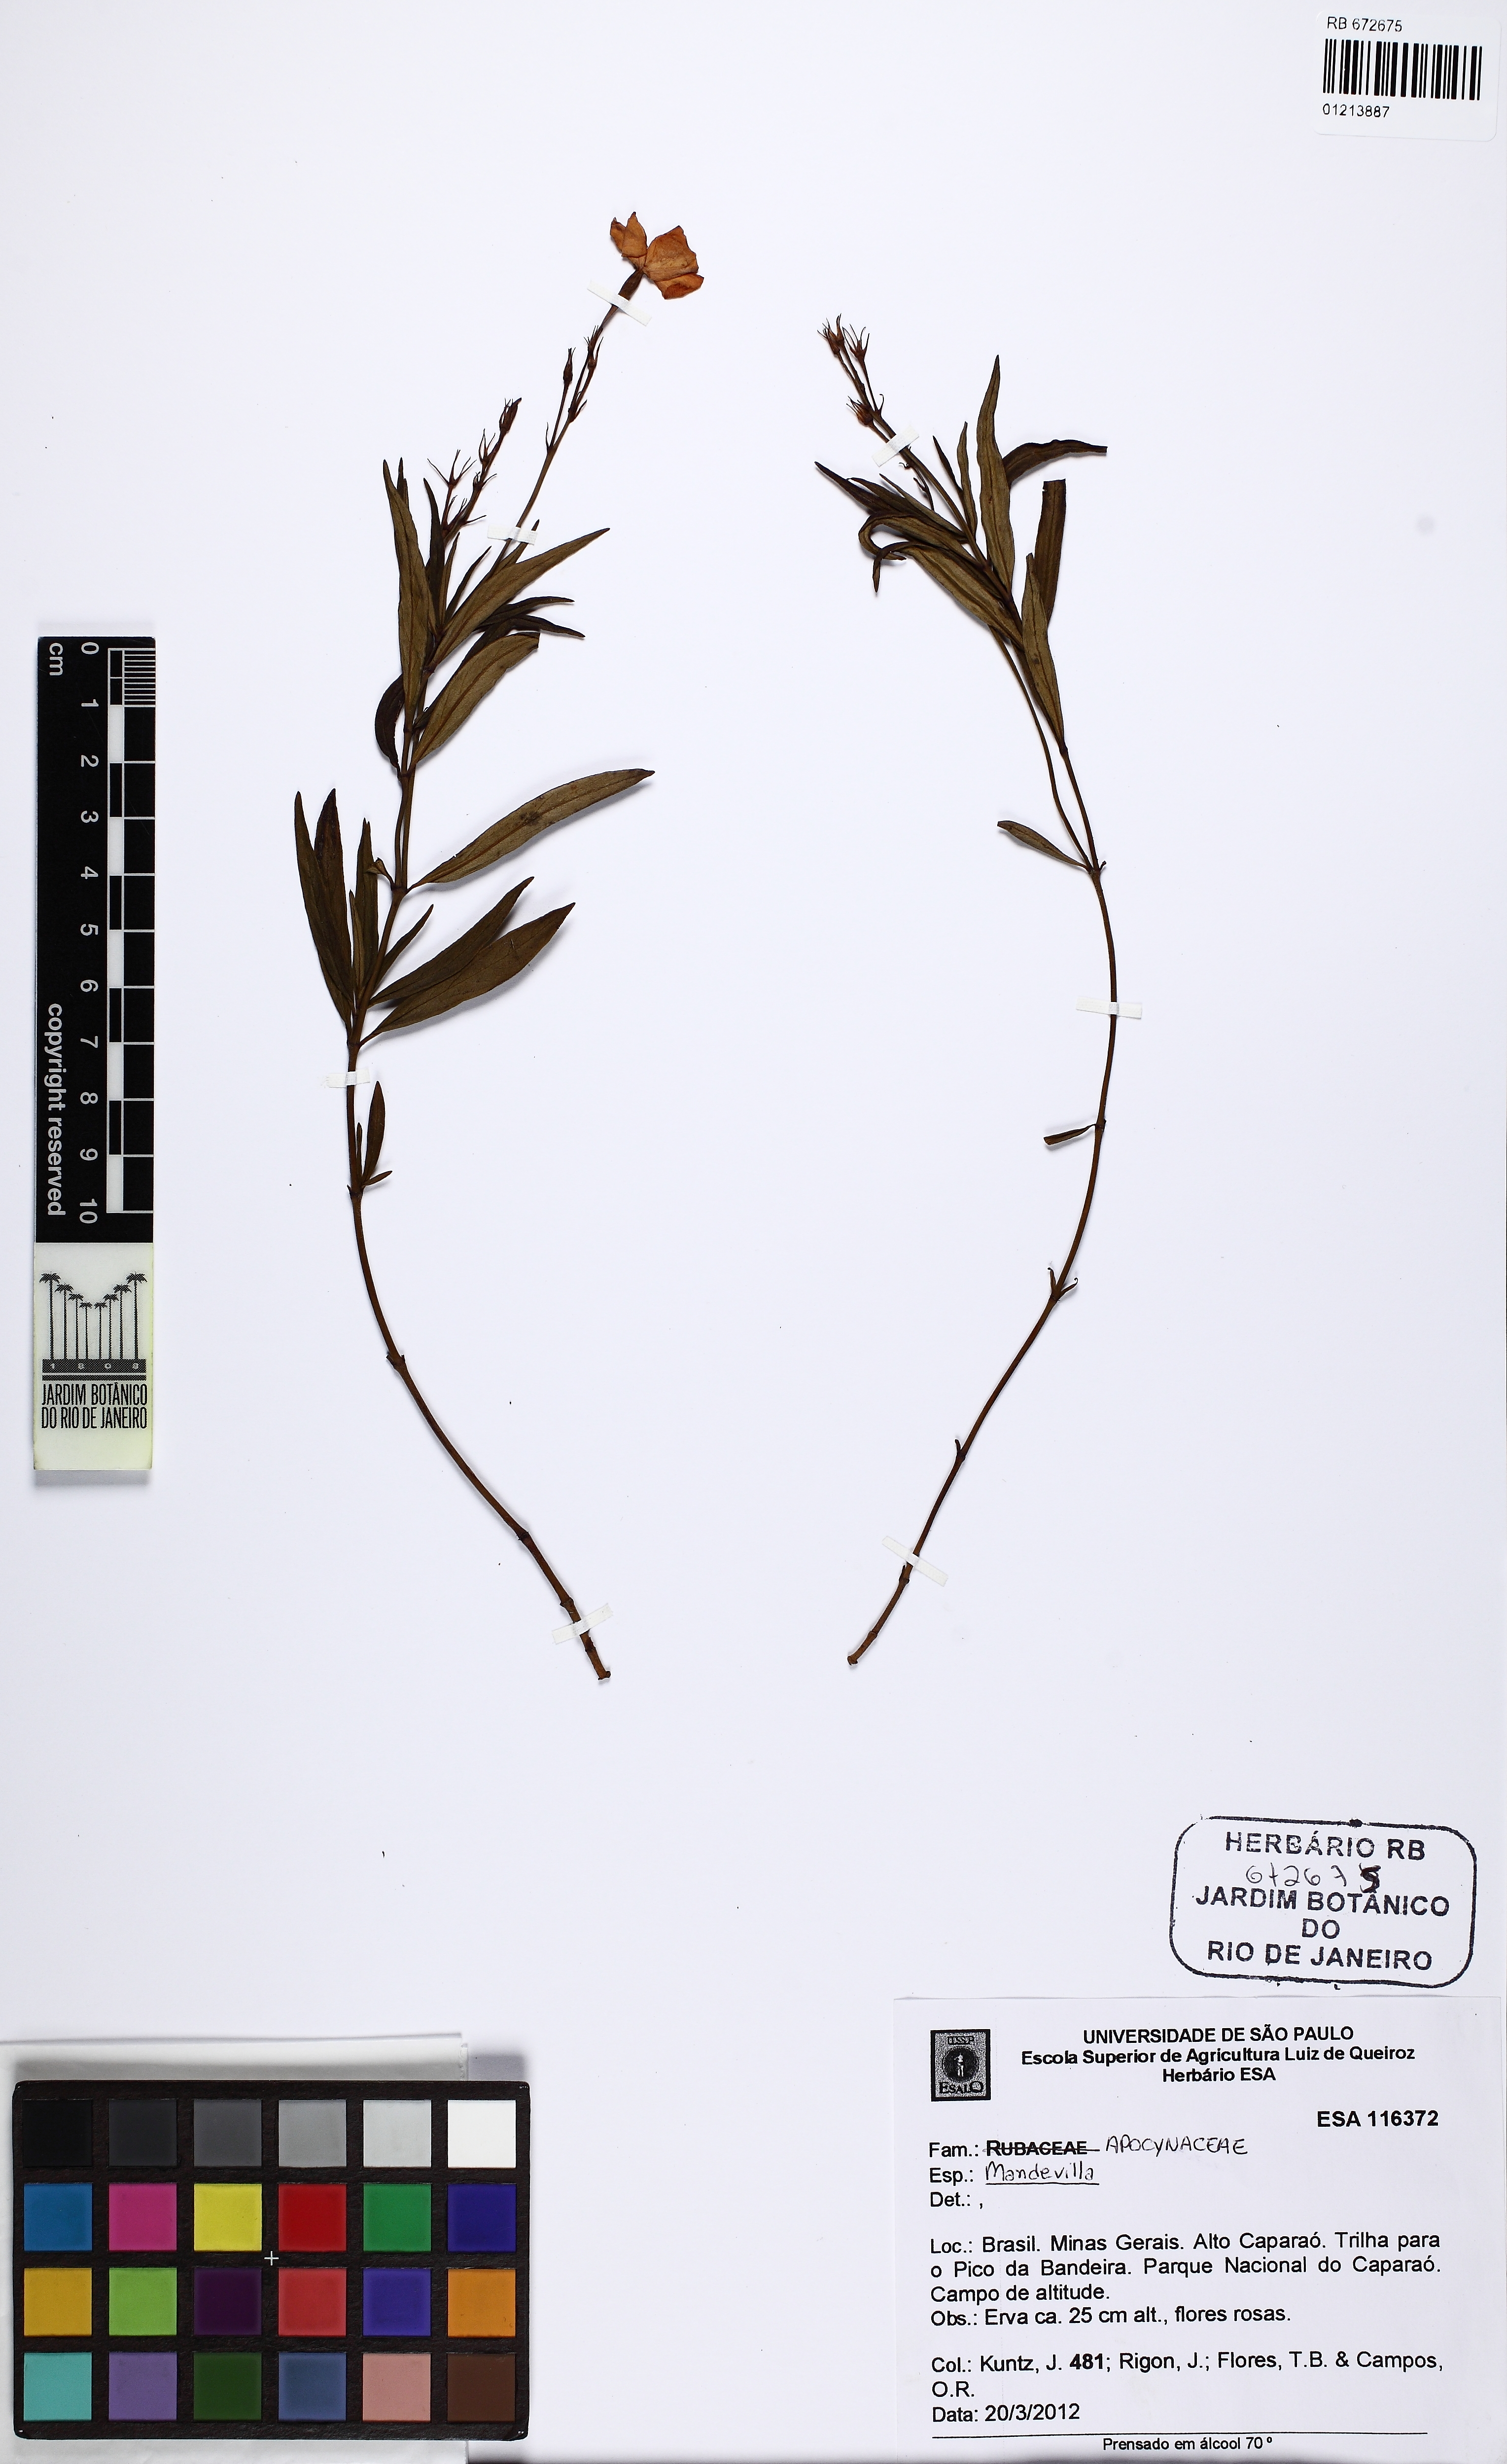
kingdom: Plantae
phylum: Tracheophyta
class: Magnoliopsida
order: Gentianales
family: Apocynaceae
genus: Mandevilla
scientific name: Mandevilla novocapitalis
